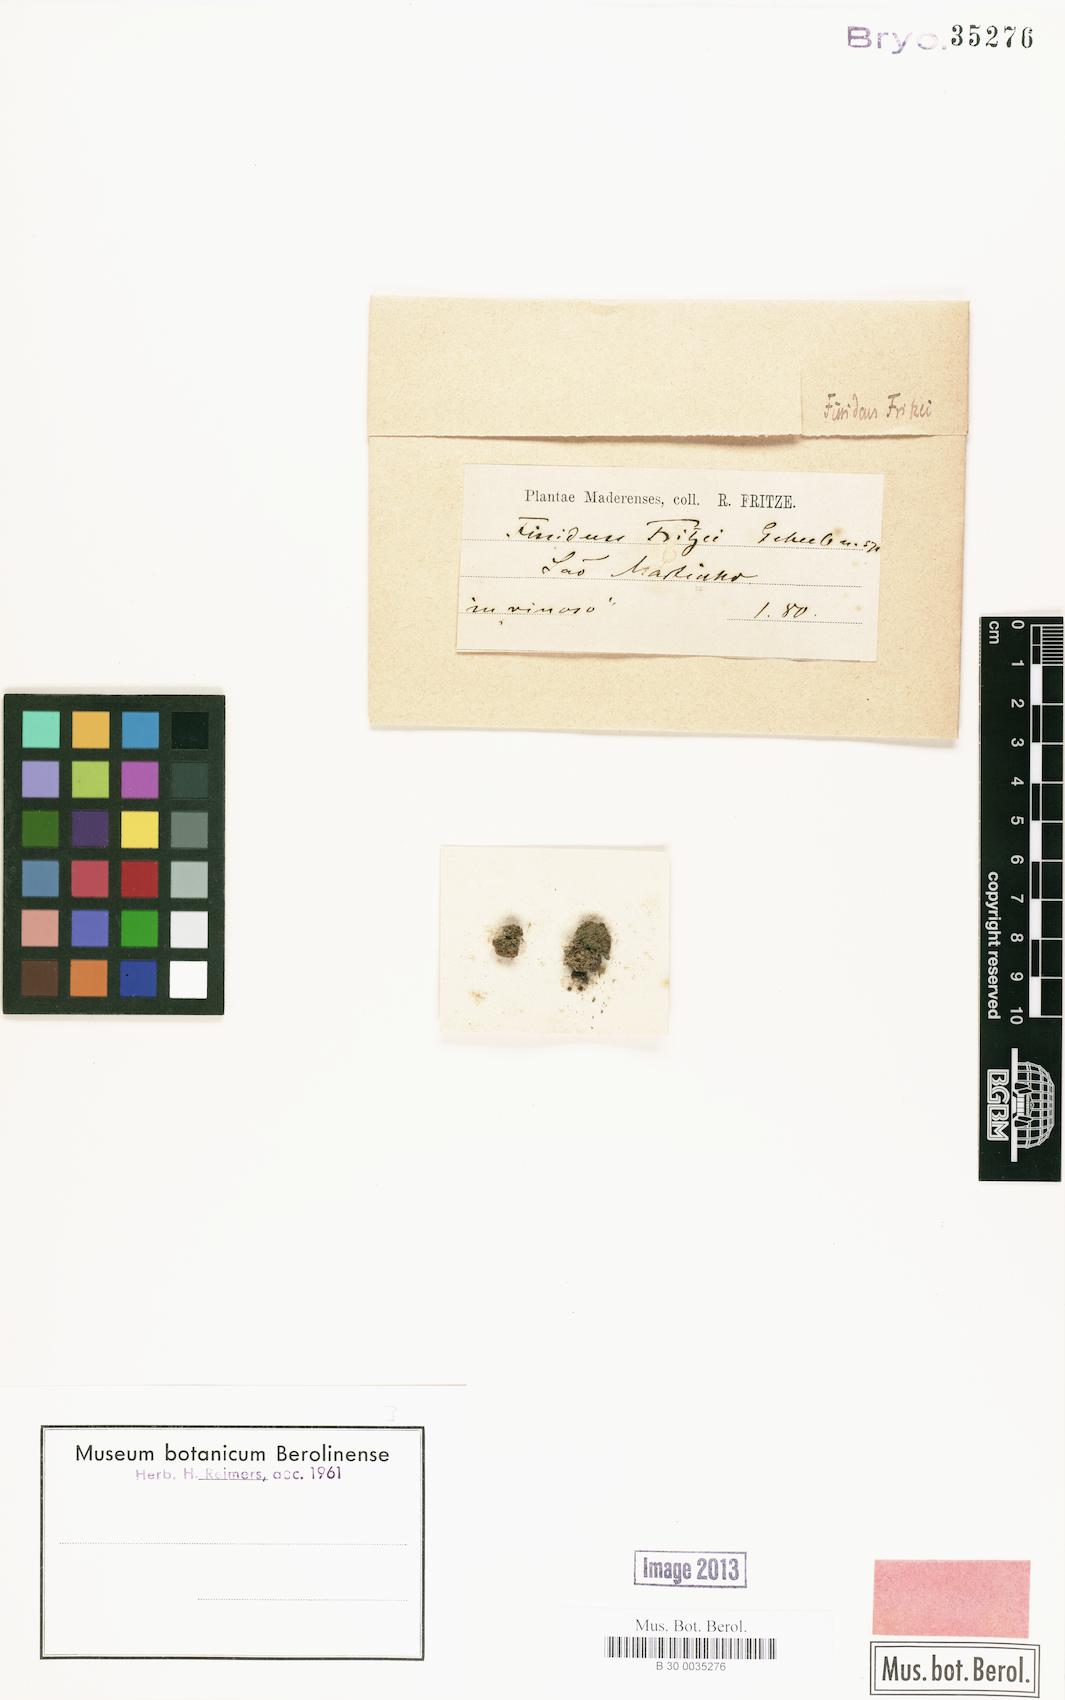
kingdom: Plantae
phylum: Bryophyta
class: Bryopsida
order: Dicranales
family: Fissidentaceae
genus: Fissidens
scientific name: Fissidens curvatus
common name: Milo's fissidens moss
